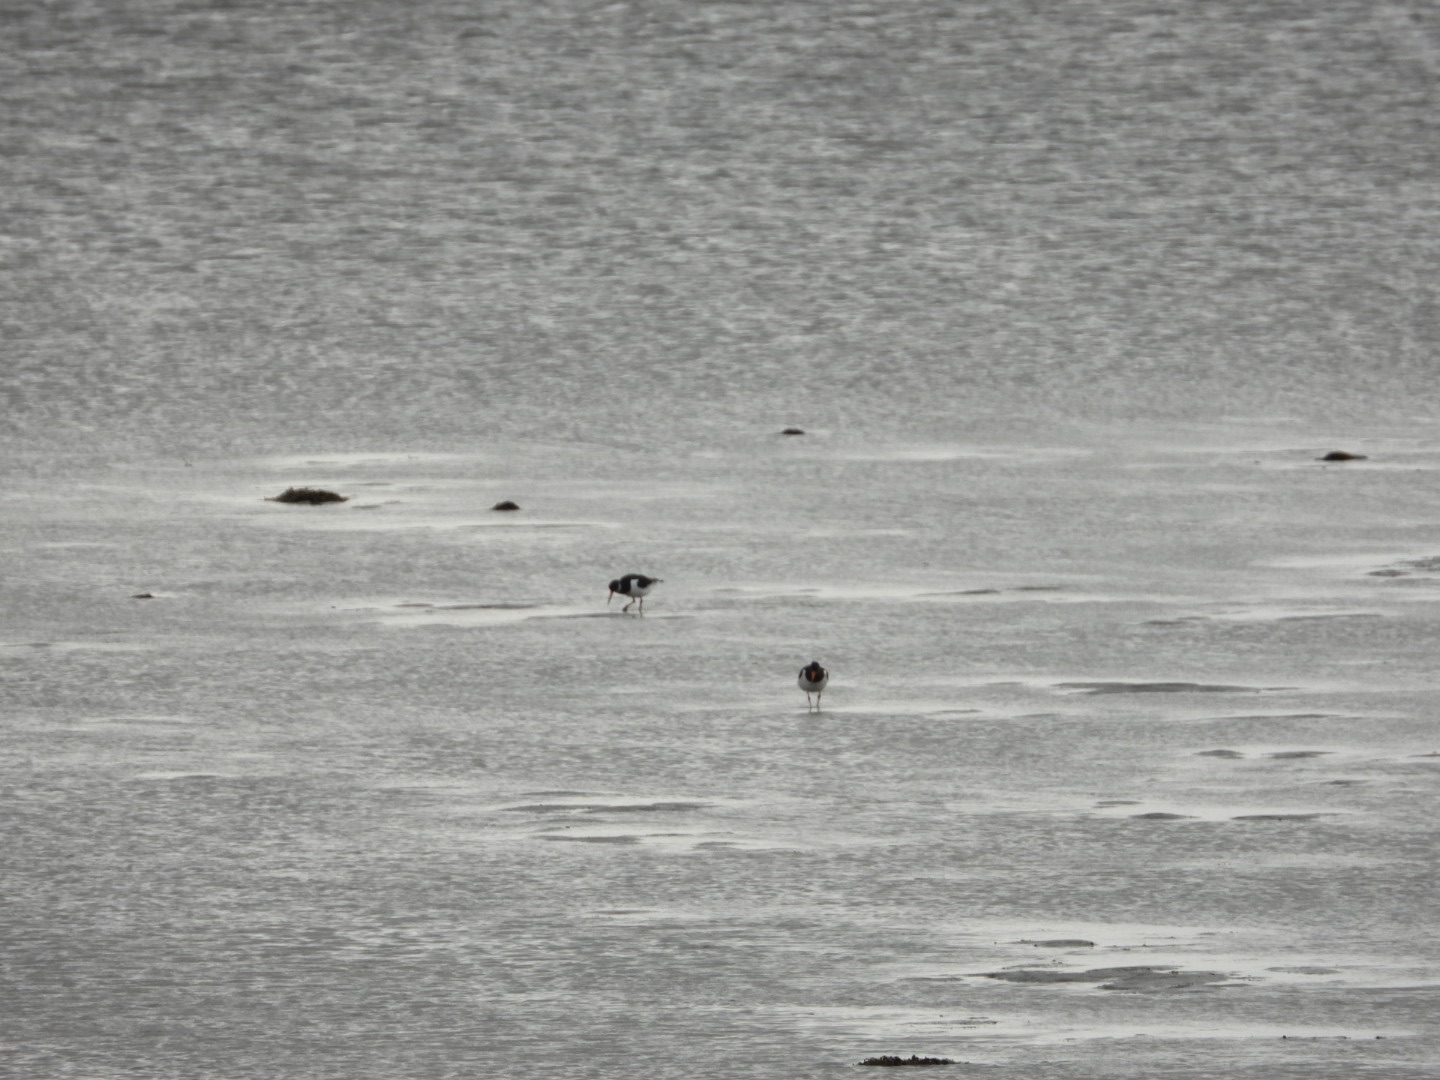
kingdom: Animalia
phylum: Chordata
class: Aves
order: Charadriiformes
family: Haematopodidae
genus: Haematopus
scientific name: Haematopus ostralegus
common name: Strandskade
